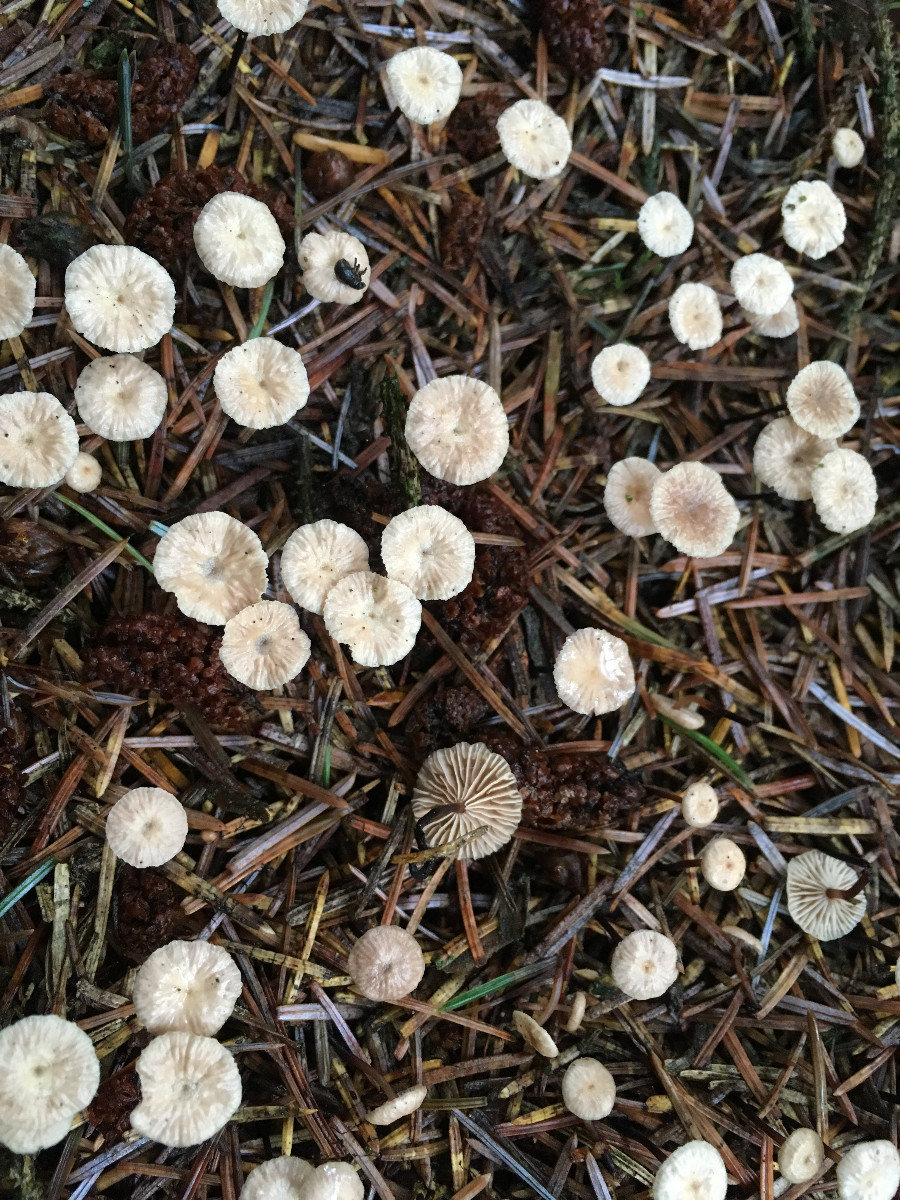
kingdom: Fungi
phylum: Basidiomycota
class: Agaricomycetes
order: Agaricales
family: Omphalotaceae
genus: Paragymnopus
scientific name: Paragymnopus perforans
